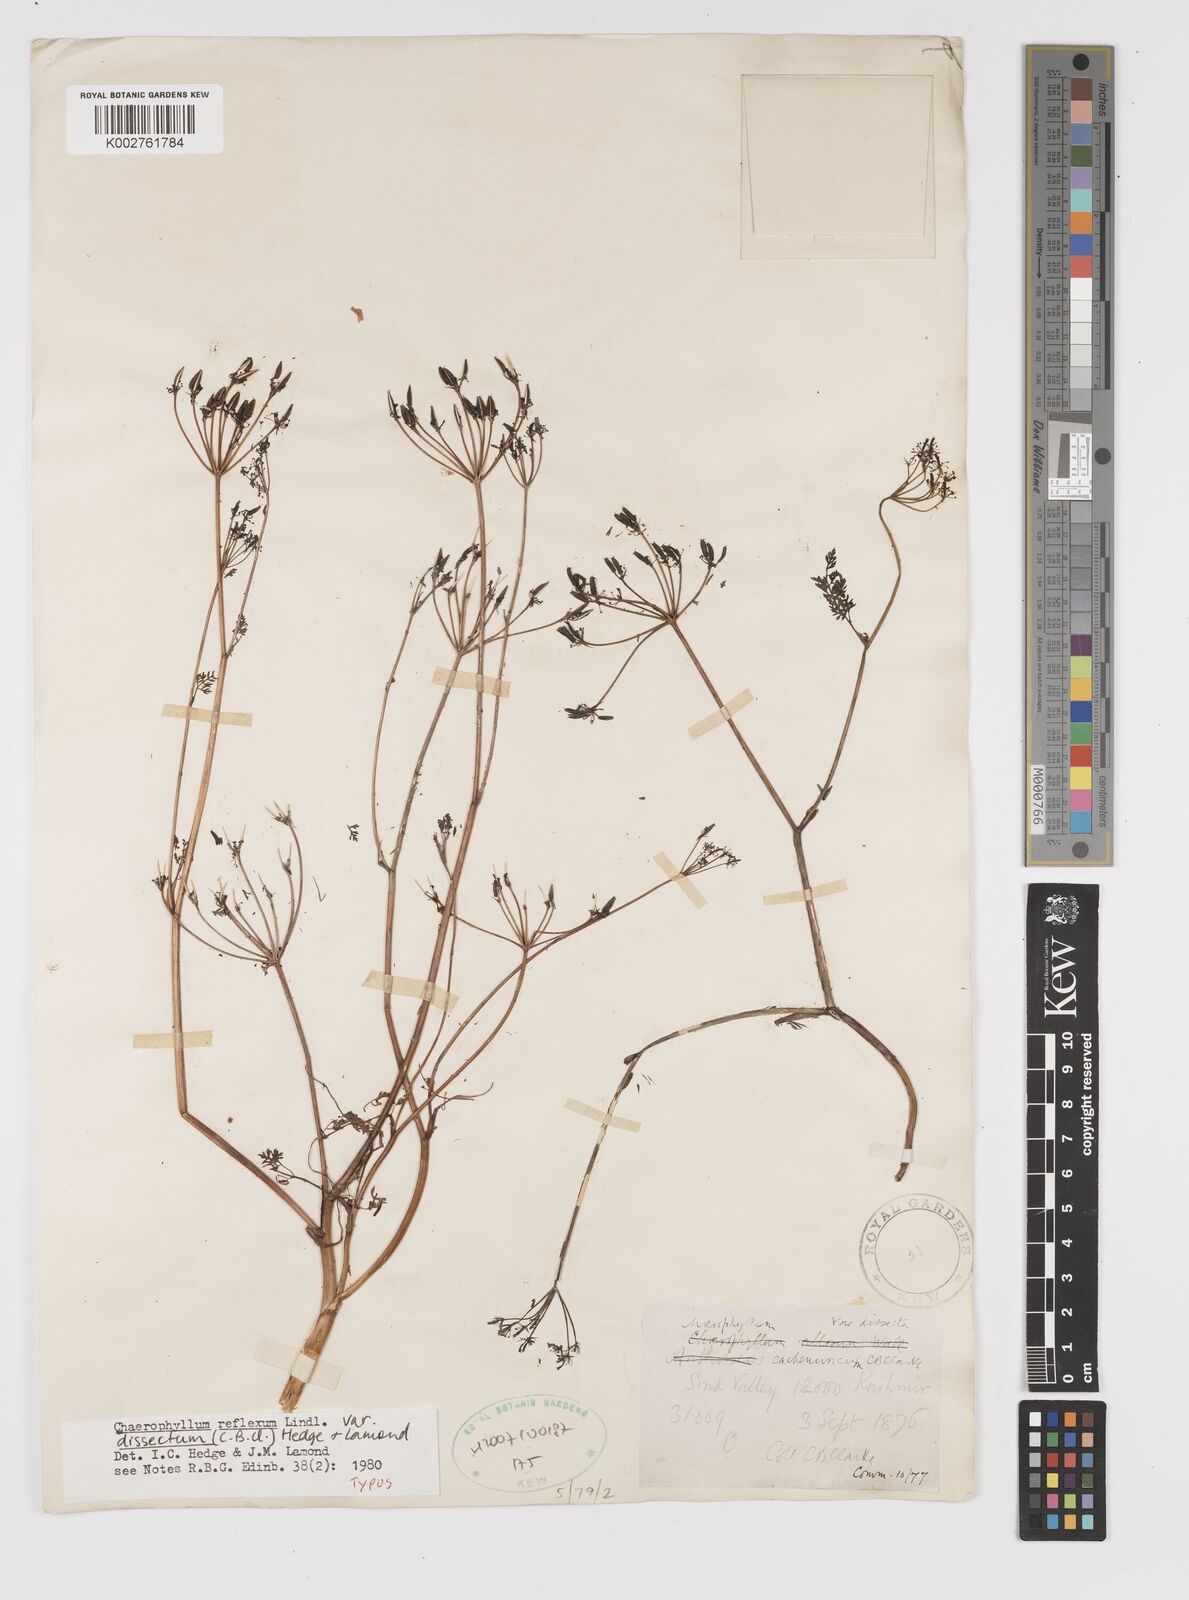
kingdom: Plantae
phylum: Tracheophyta
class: Magnoliopsida
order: Apiales
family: Apiaceae
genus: Chaerophyllum
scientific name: Chaerophyllum reflexum
